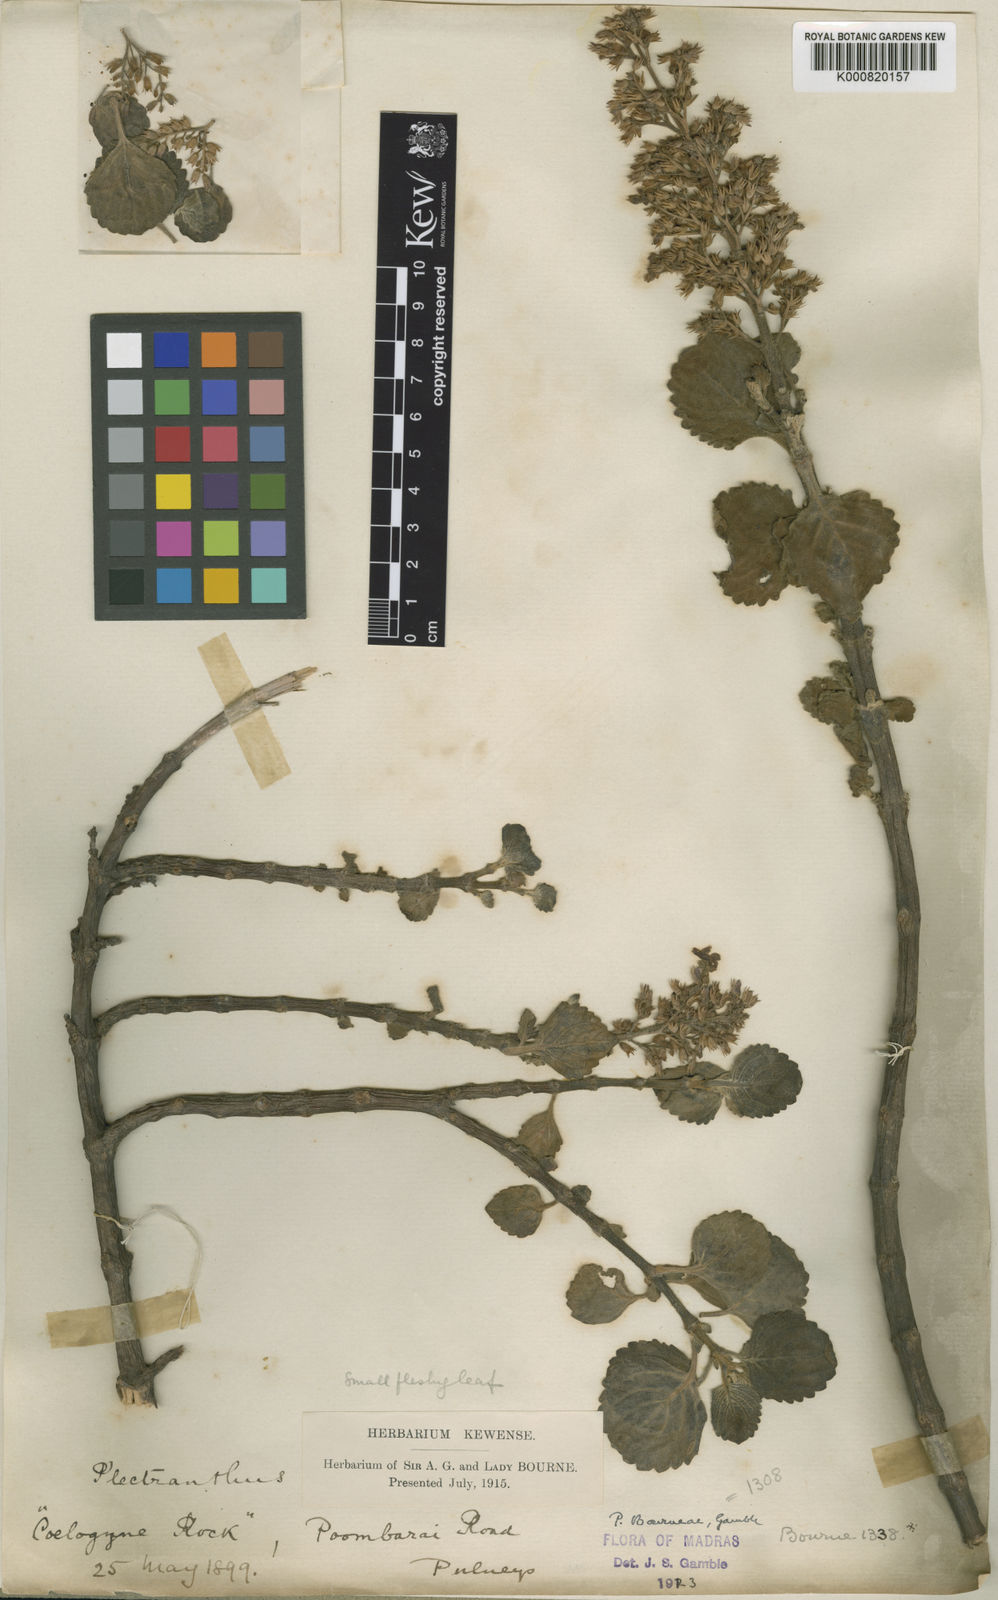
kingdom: Plantae
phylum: Tracheophyta
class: Magnoliopsida
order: Lamiales
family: Lamiaceae
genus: Coleus
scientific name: Coleus bourneae
